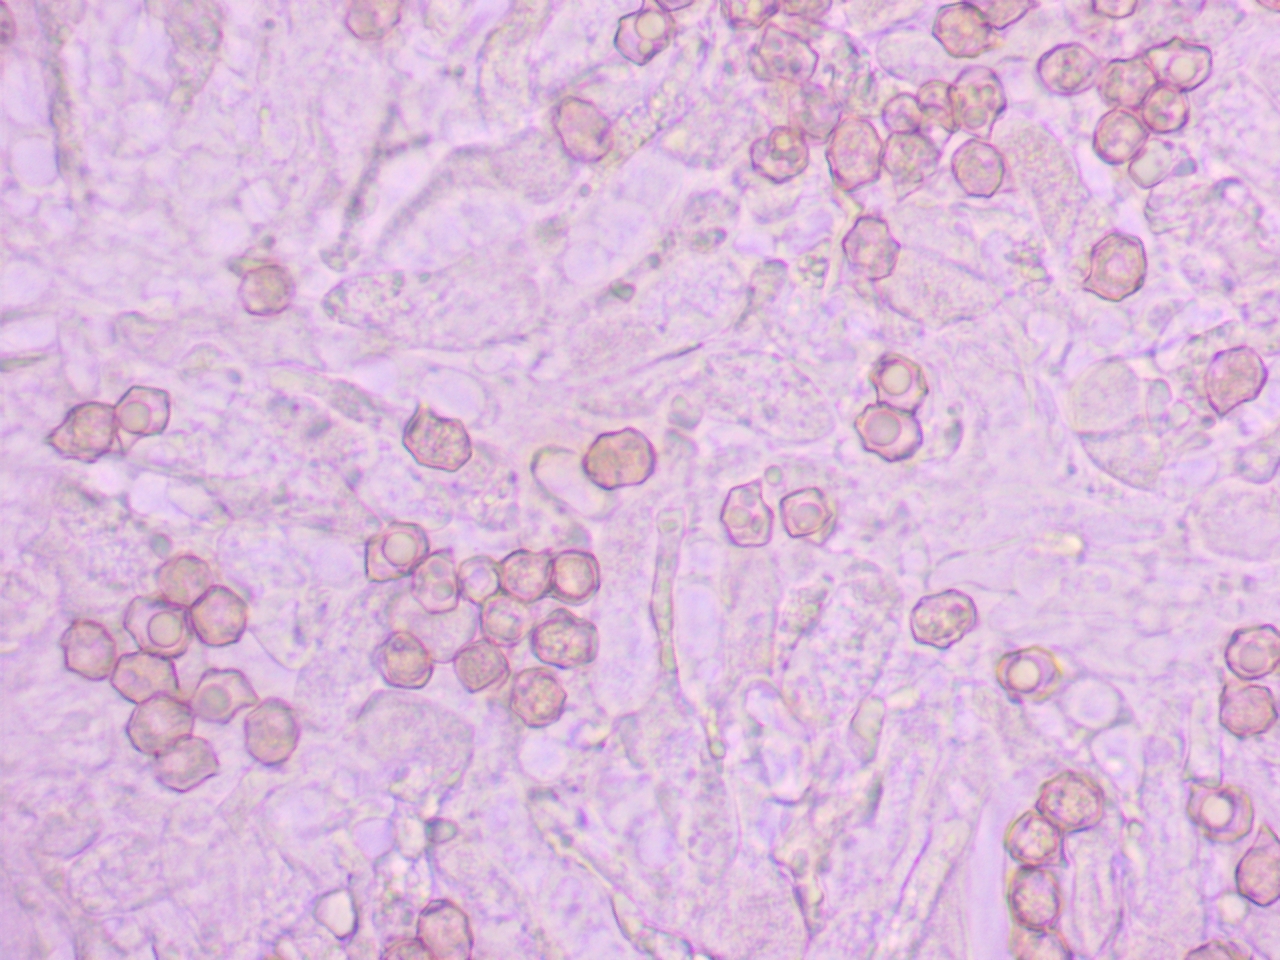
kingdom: Fungi
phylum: Basidiomycota
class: Agaricomycetes
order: Agaricales
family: Entolomataceae
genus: Entoloma
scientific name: Entoloma lividoalbum
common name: lysstokket rødblad
